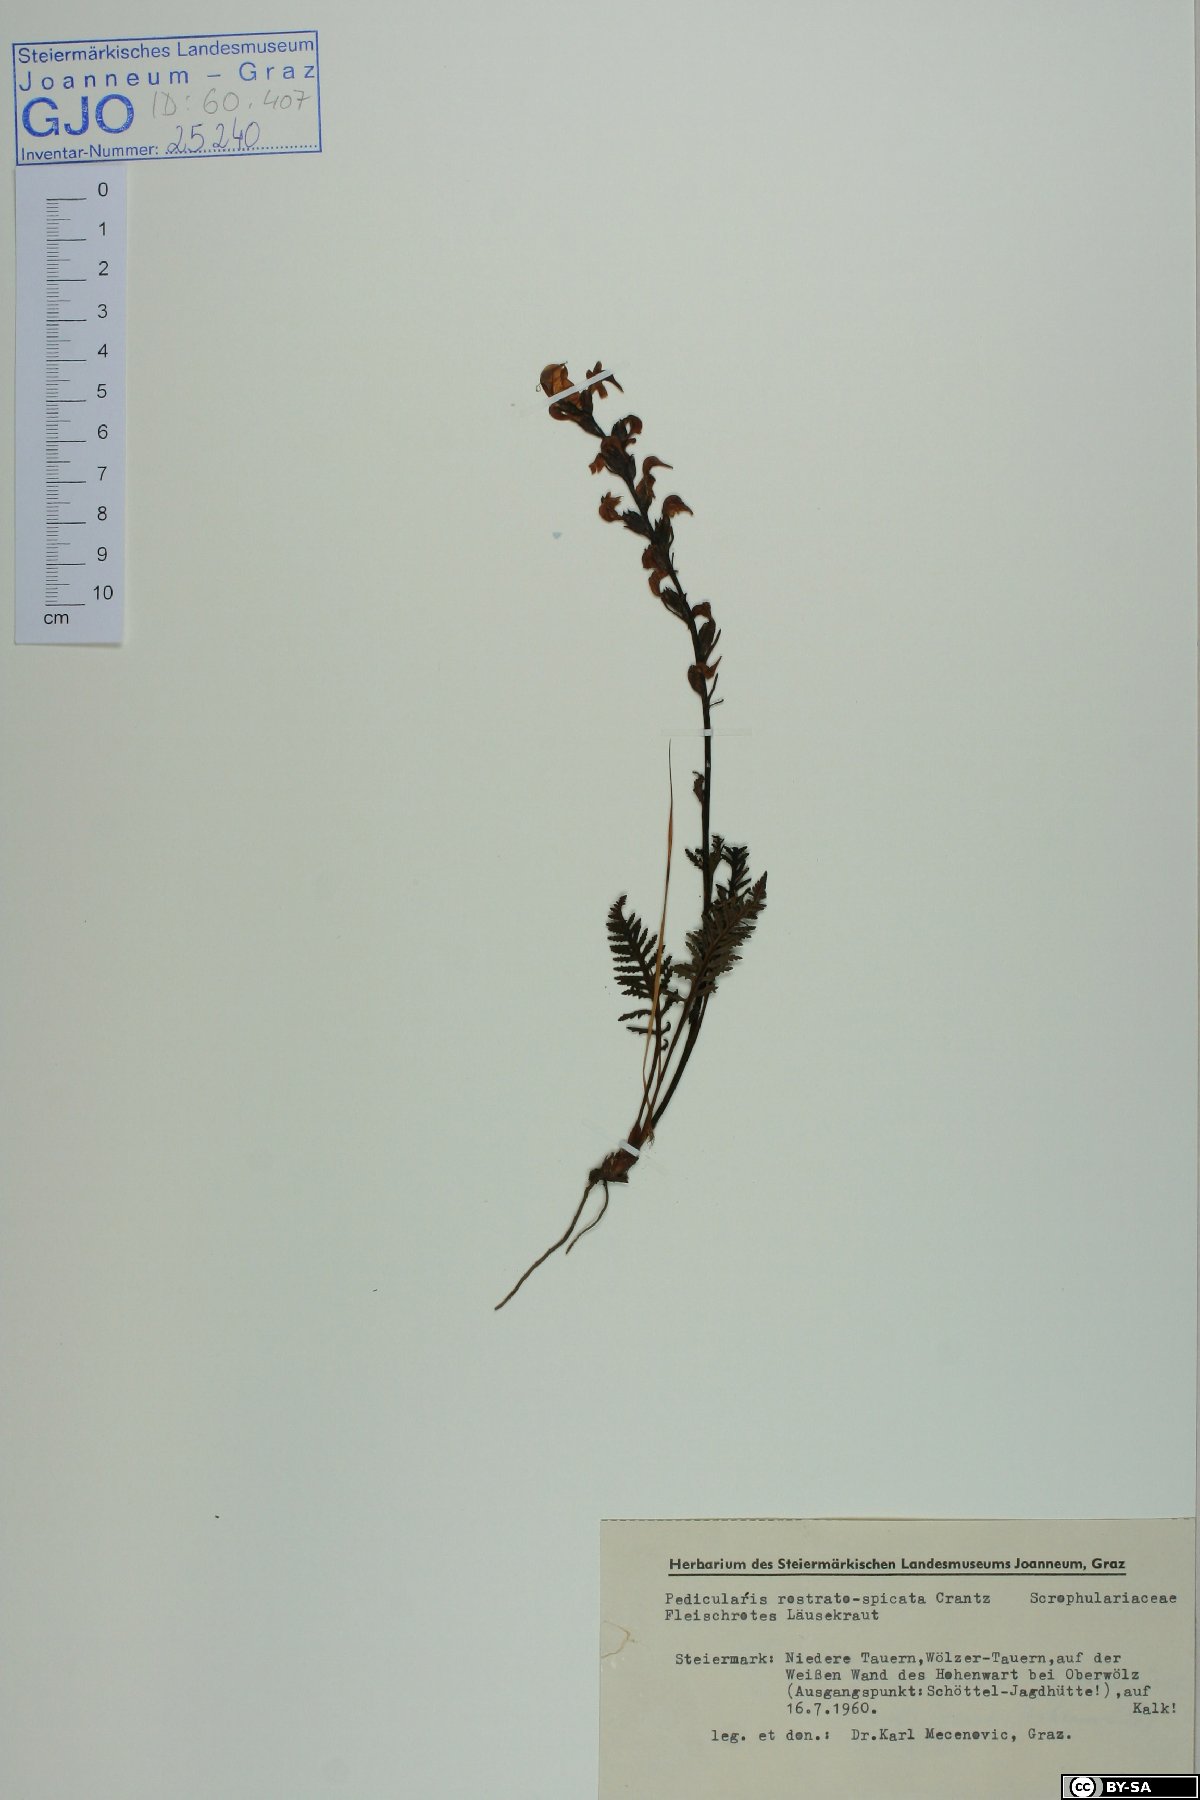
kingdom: Plantae
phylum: Tracheophyta
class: Magnoliopsida
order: Lamiales
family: Orobanchaceae
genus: Pedicularis
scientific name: Pedicularis rostratospicata
